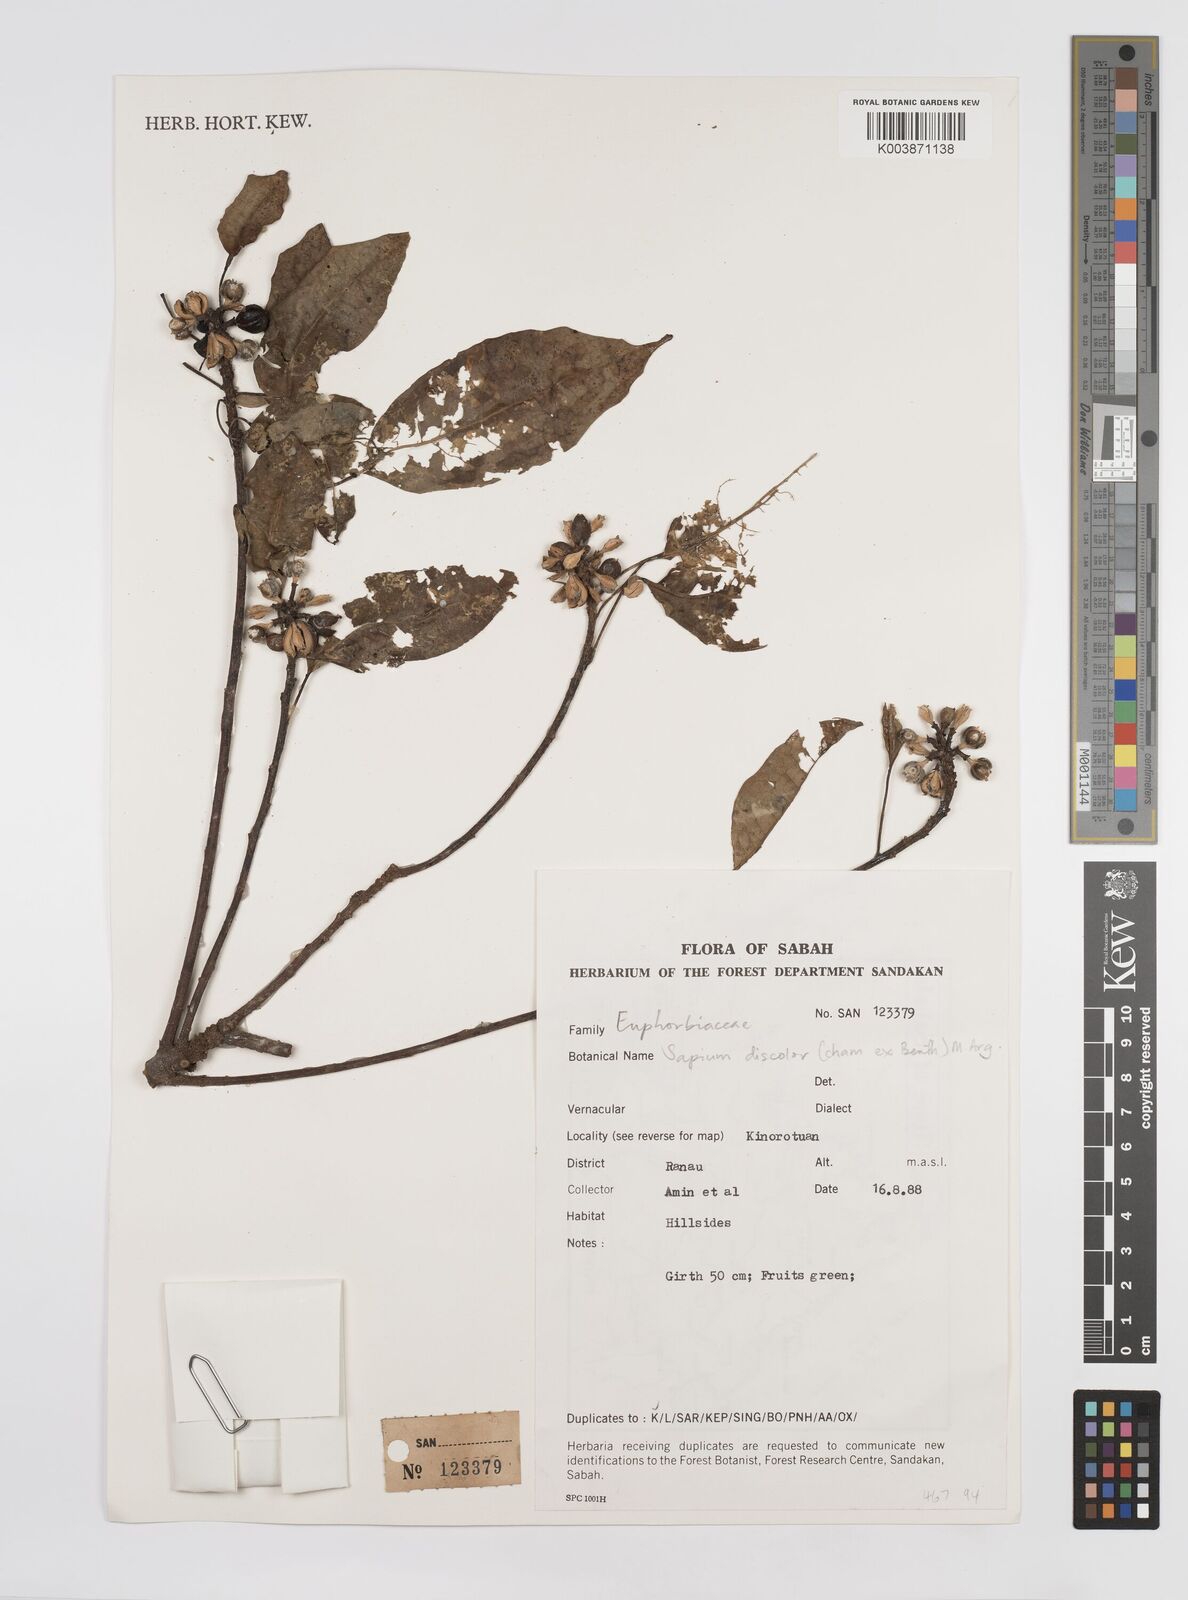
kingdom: Plantae
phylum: Tracheophyta
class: Magnoliopsida
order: Malpighiales
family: Euphorbiaceae
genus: Triadica
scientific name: Triadica cochinchinensis
